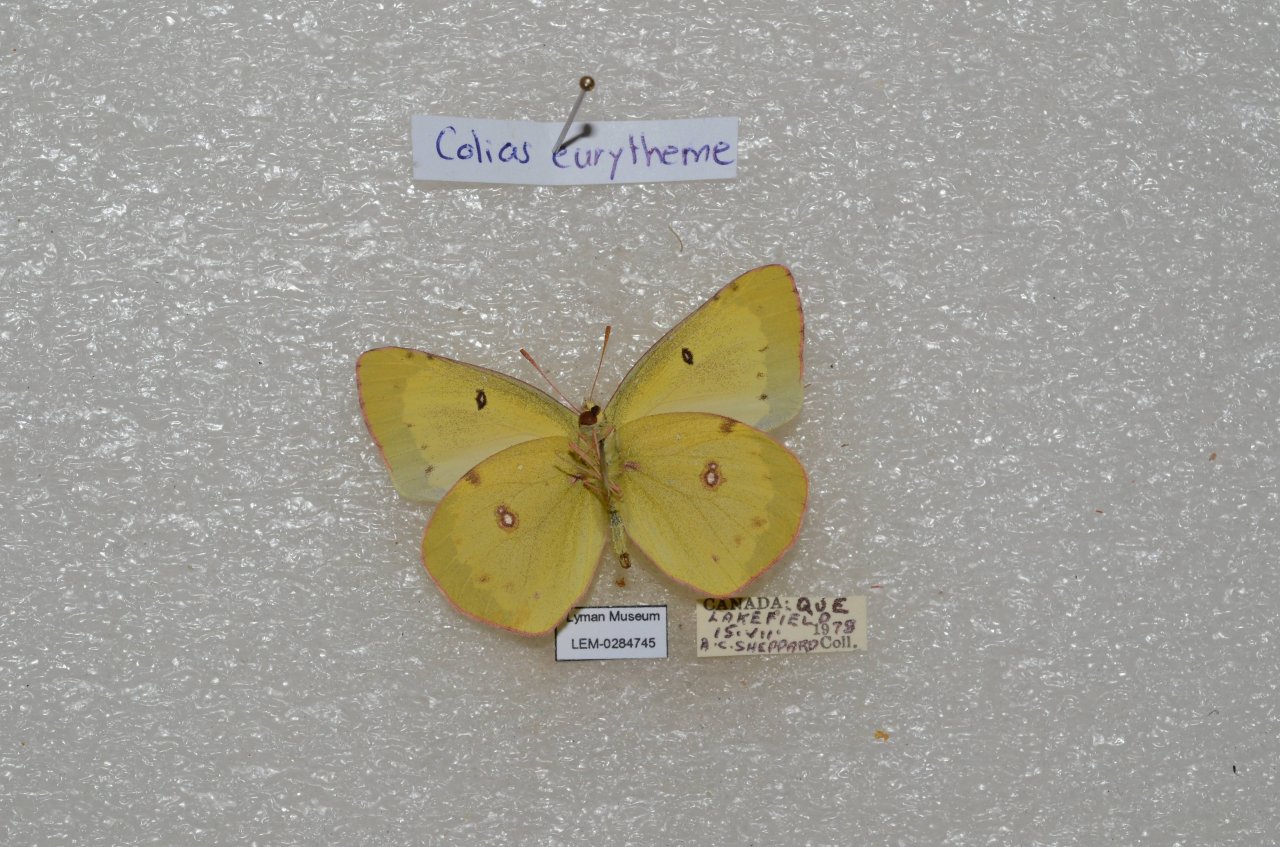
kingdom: Animalia
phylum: Arthropoda
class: Insecta
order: Lepidoptera
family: Pieridae
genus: Colias
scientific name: Colias eurytheme
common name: Orange Sulphur
